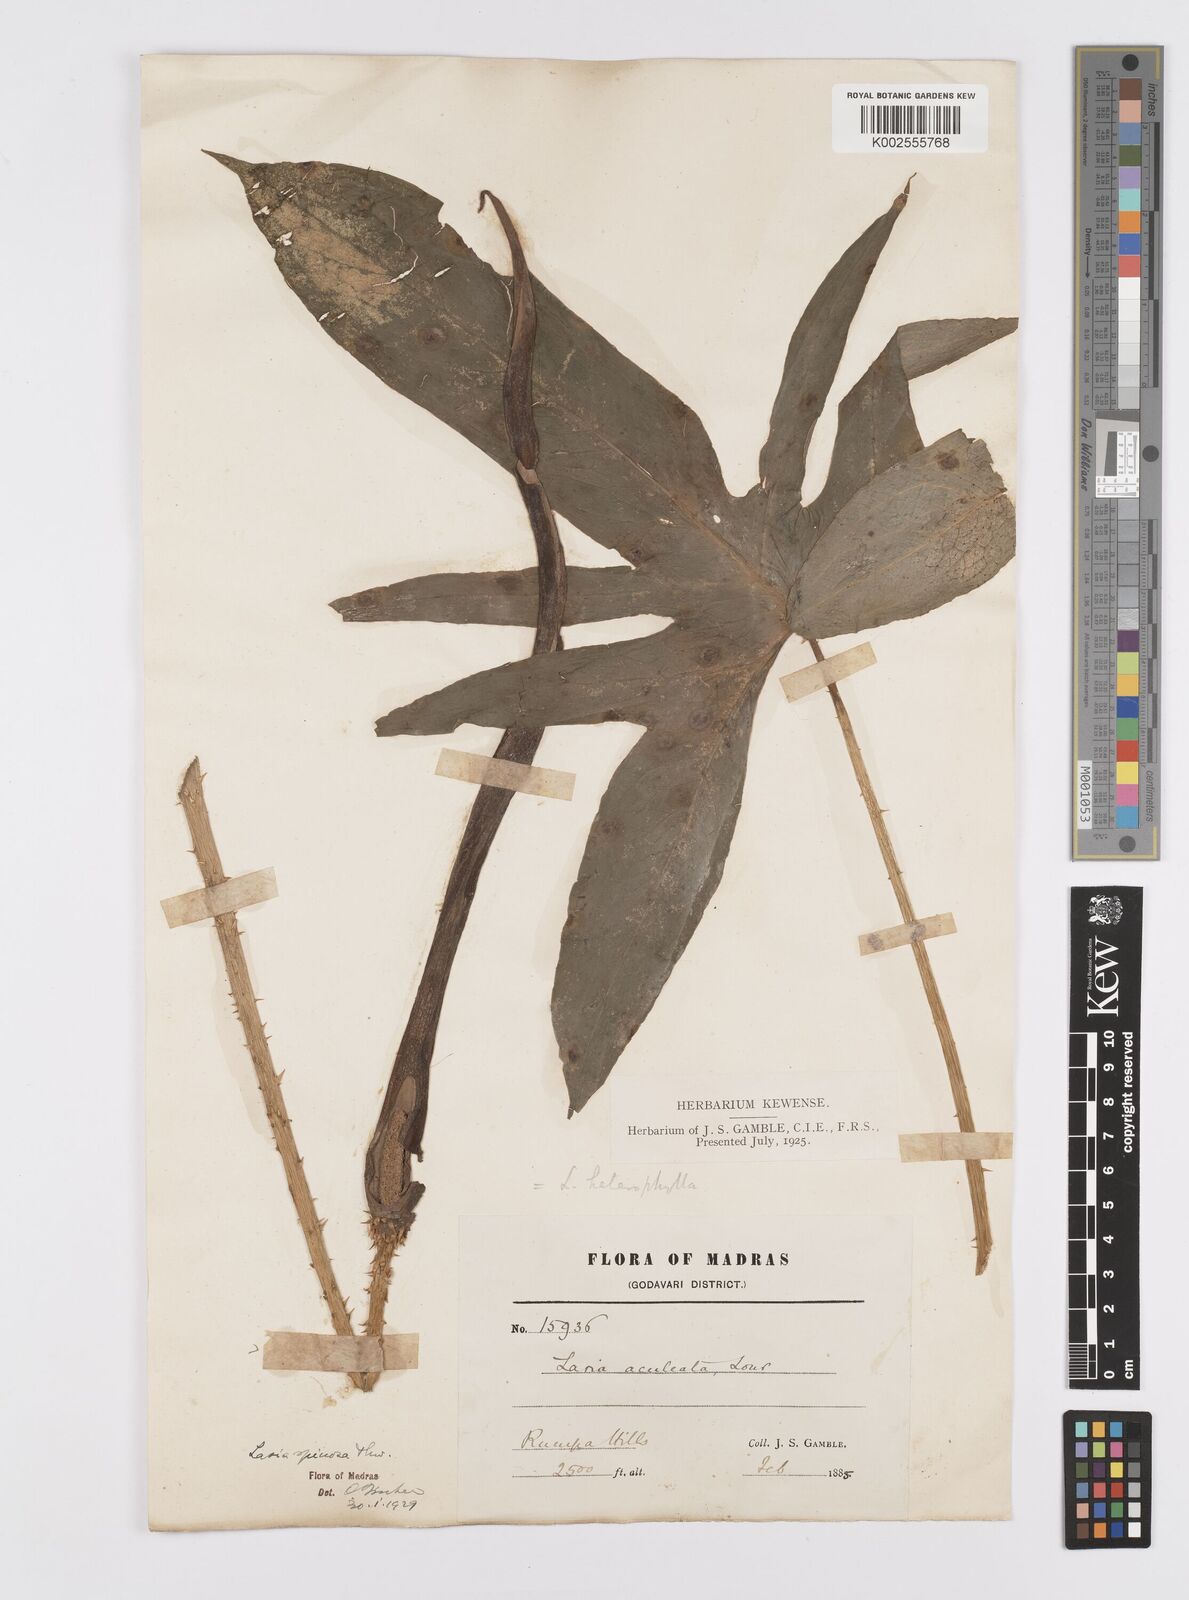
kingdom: Plantae
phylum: Tracheophyta
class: Liliopsida
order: Alismatales
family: Araceae
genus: Lasia
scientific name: Lasia spinosa
